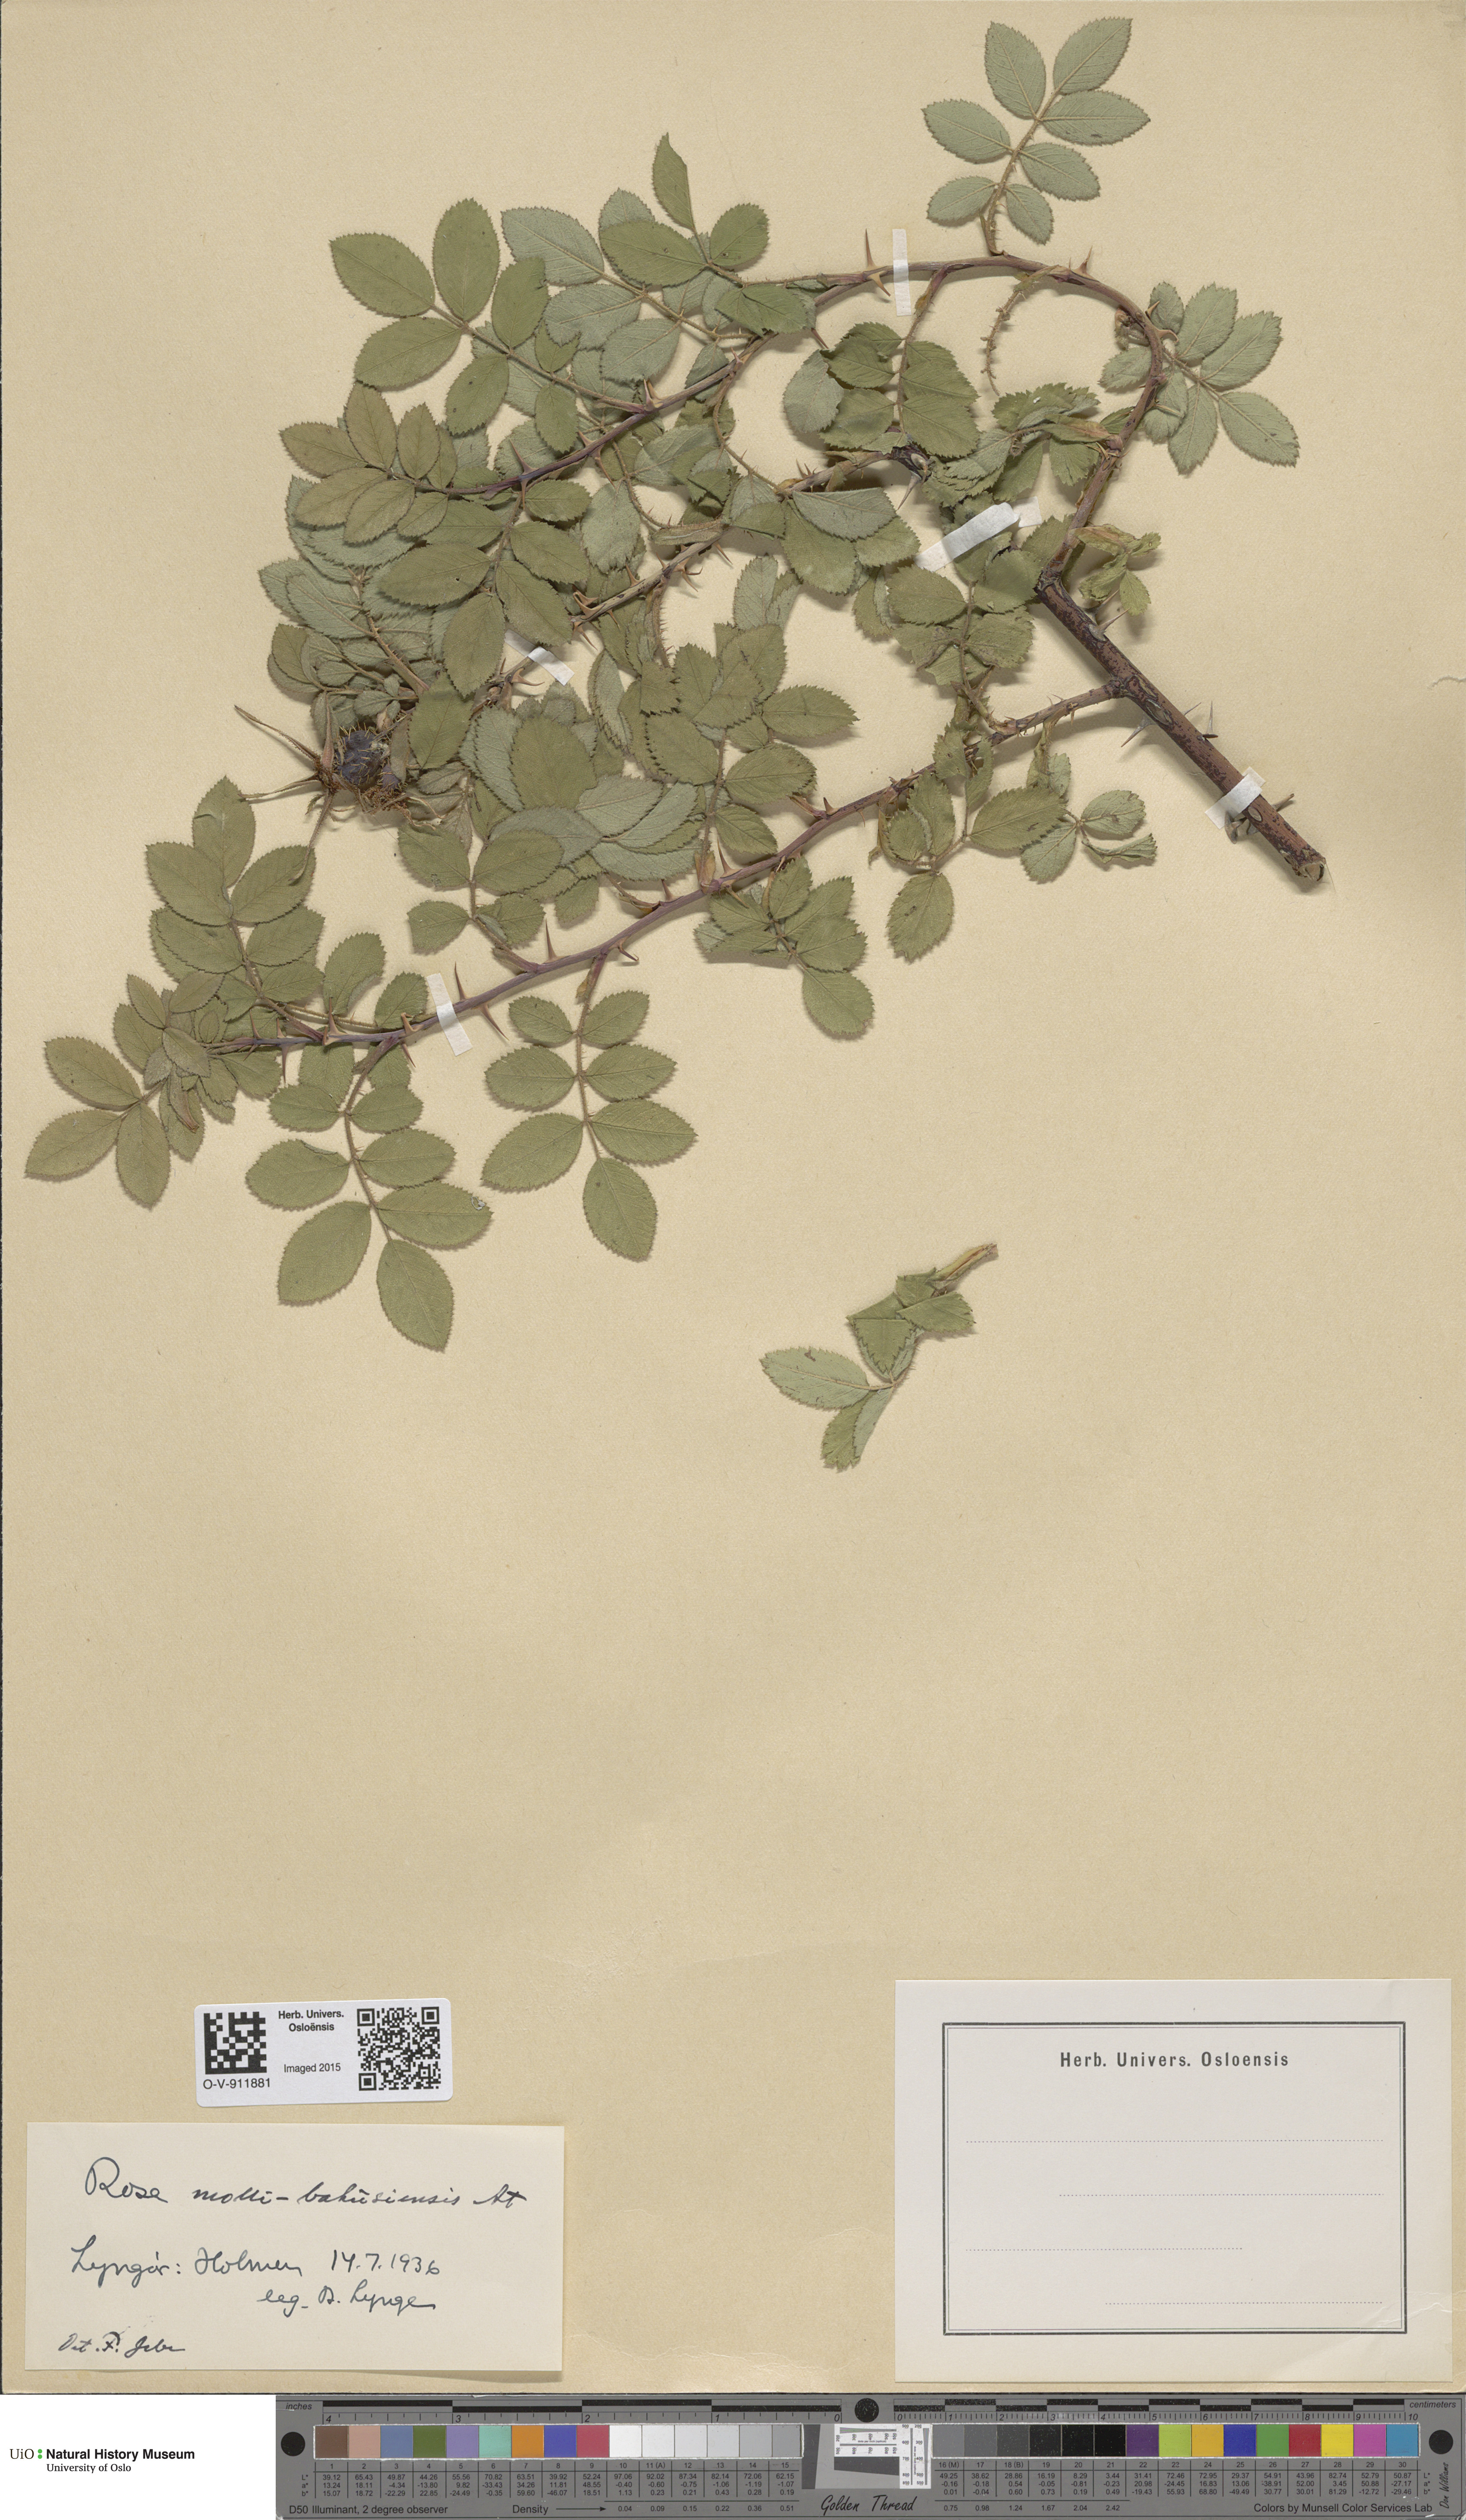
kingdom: Plantae
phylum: Tracheophyta
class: Magnoliopsida
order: Rosales
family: Rosaceae
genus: Rosa
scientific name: Rosa mollis
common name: Rose
